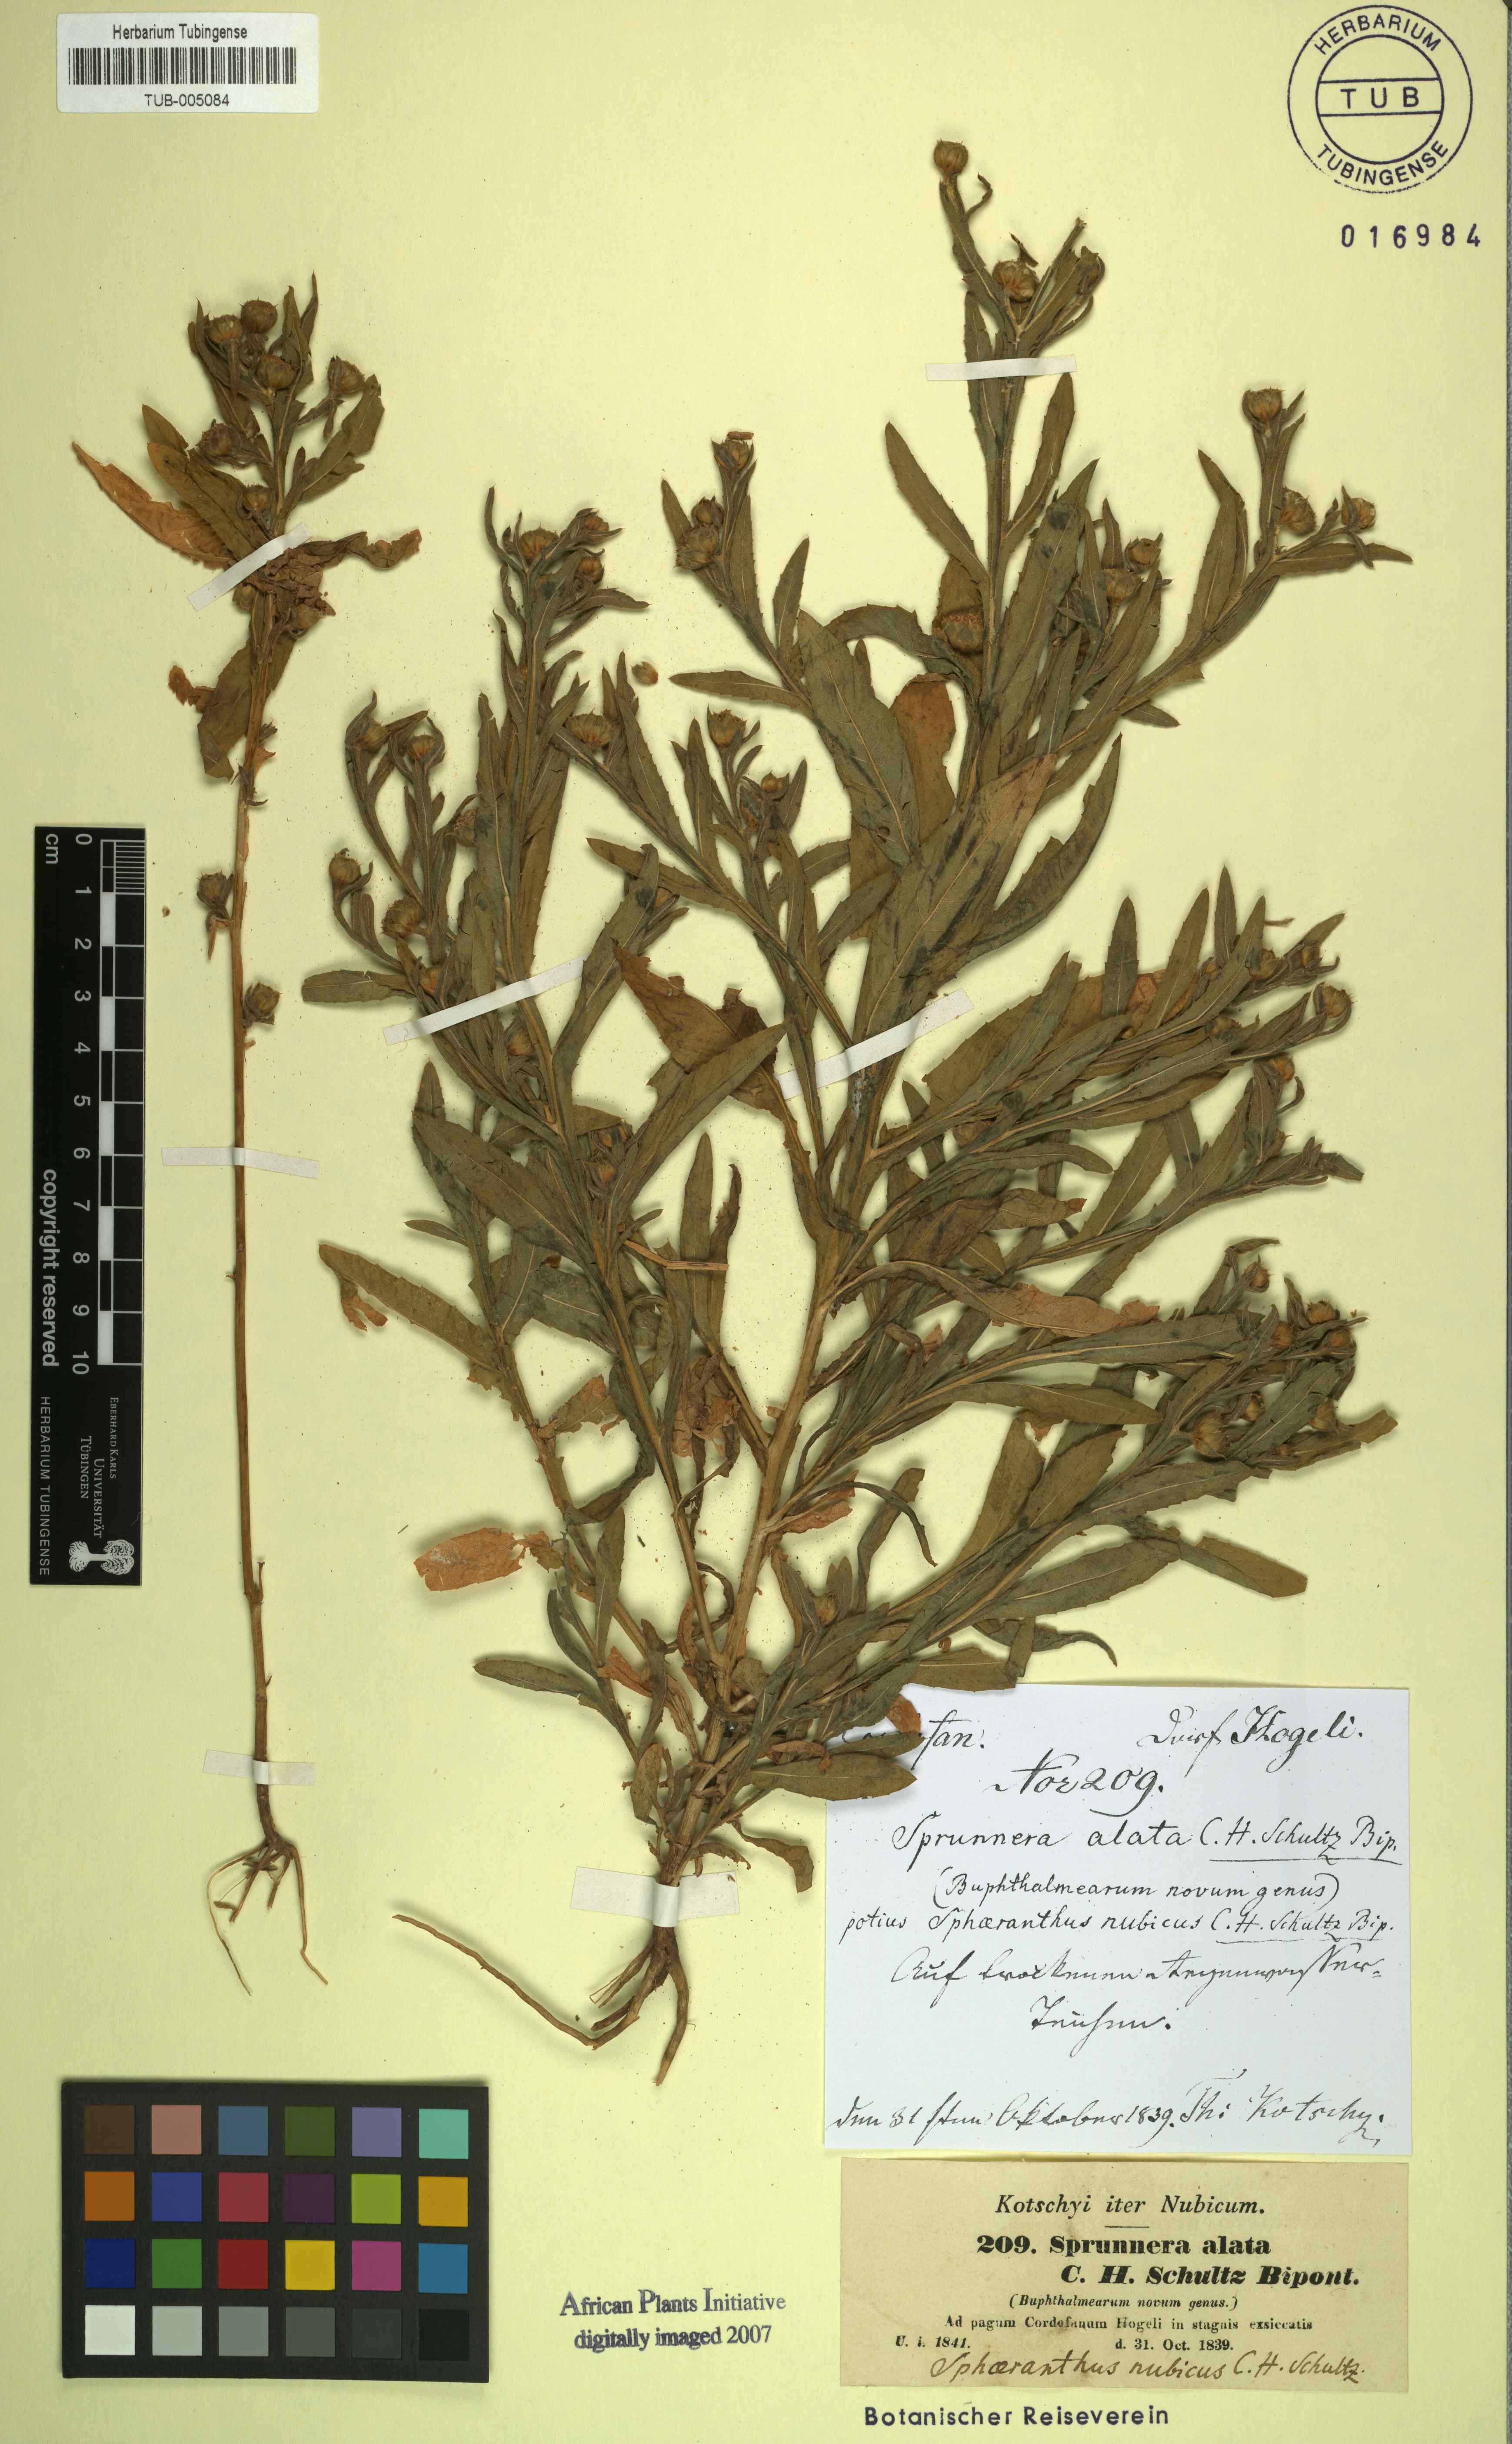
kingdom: Plantae
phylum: Tracheophyta
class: Magnoliopsida
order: Asterales
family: Asteraceae
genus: Sphaeranthus
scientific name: Sphaeranthus angustifolius
